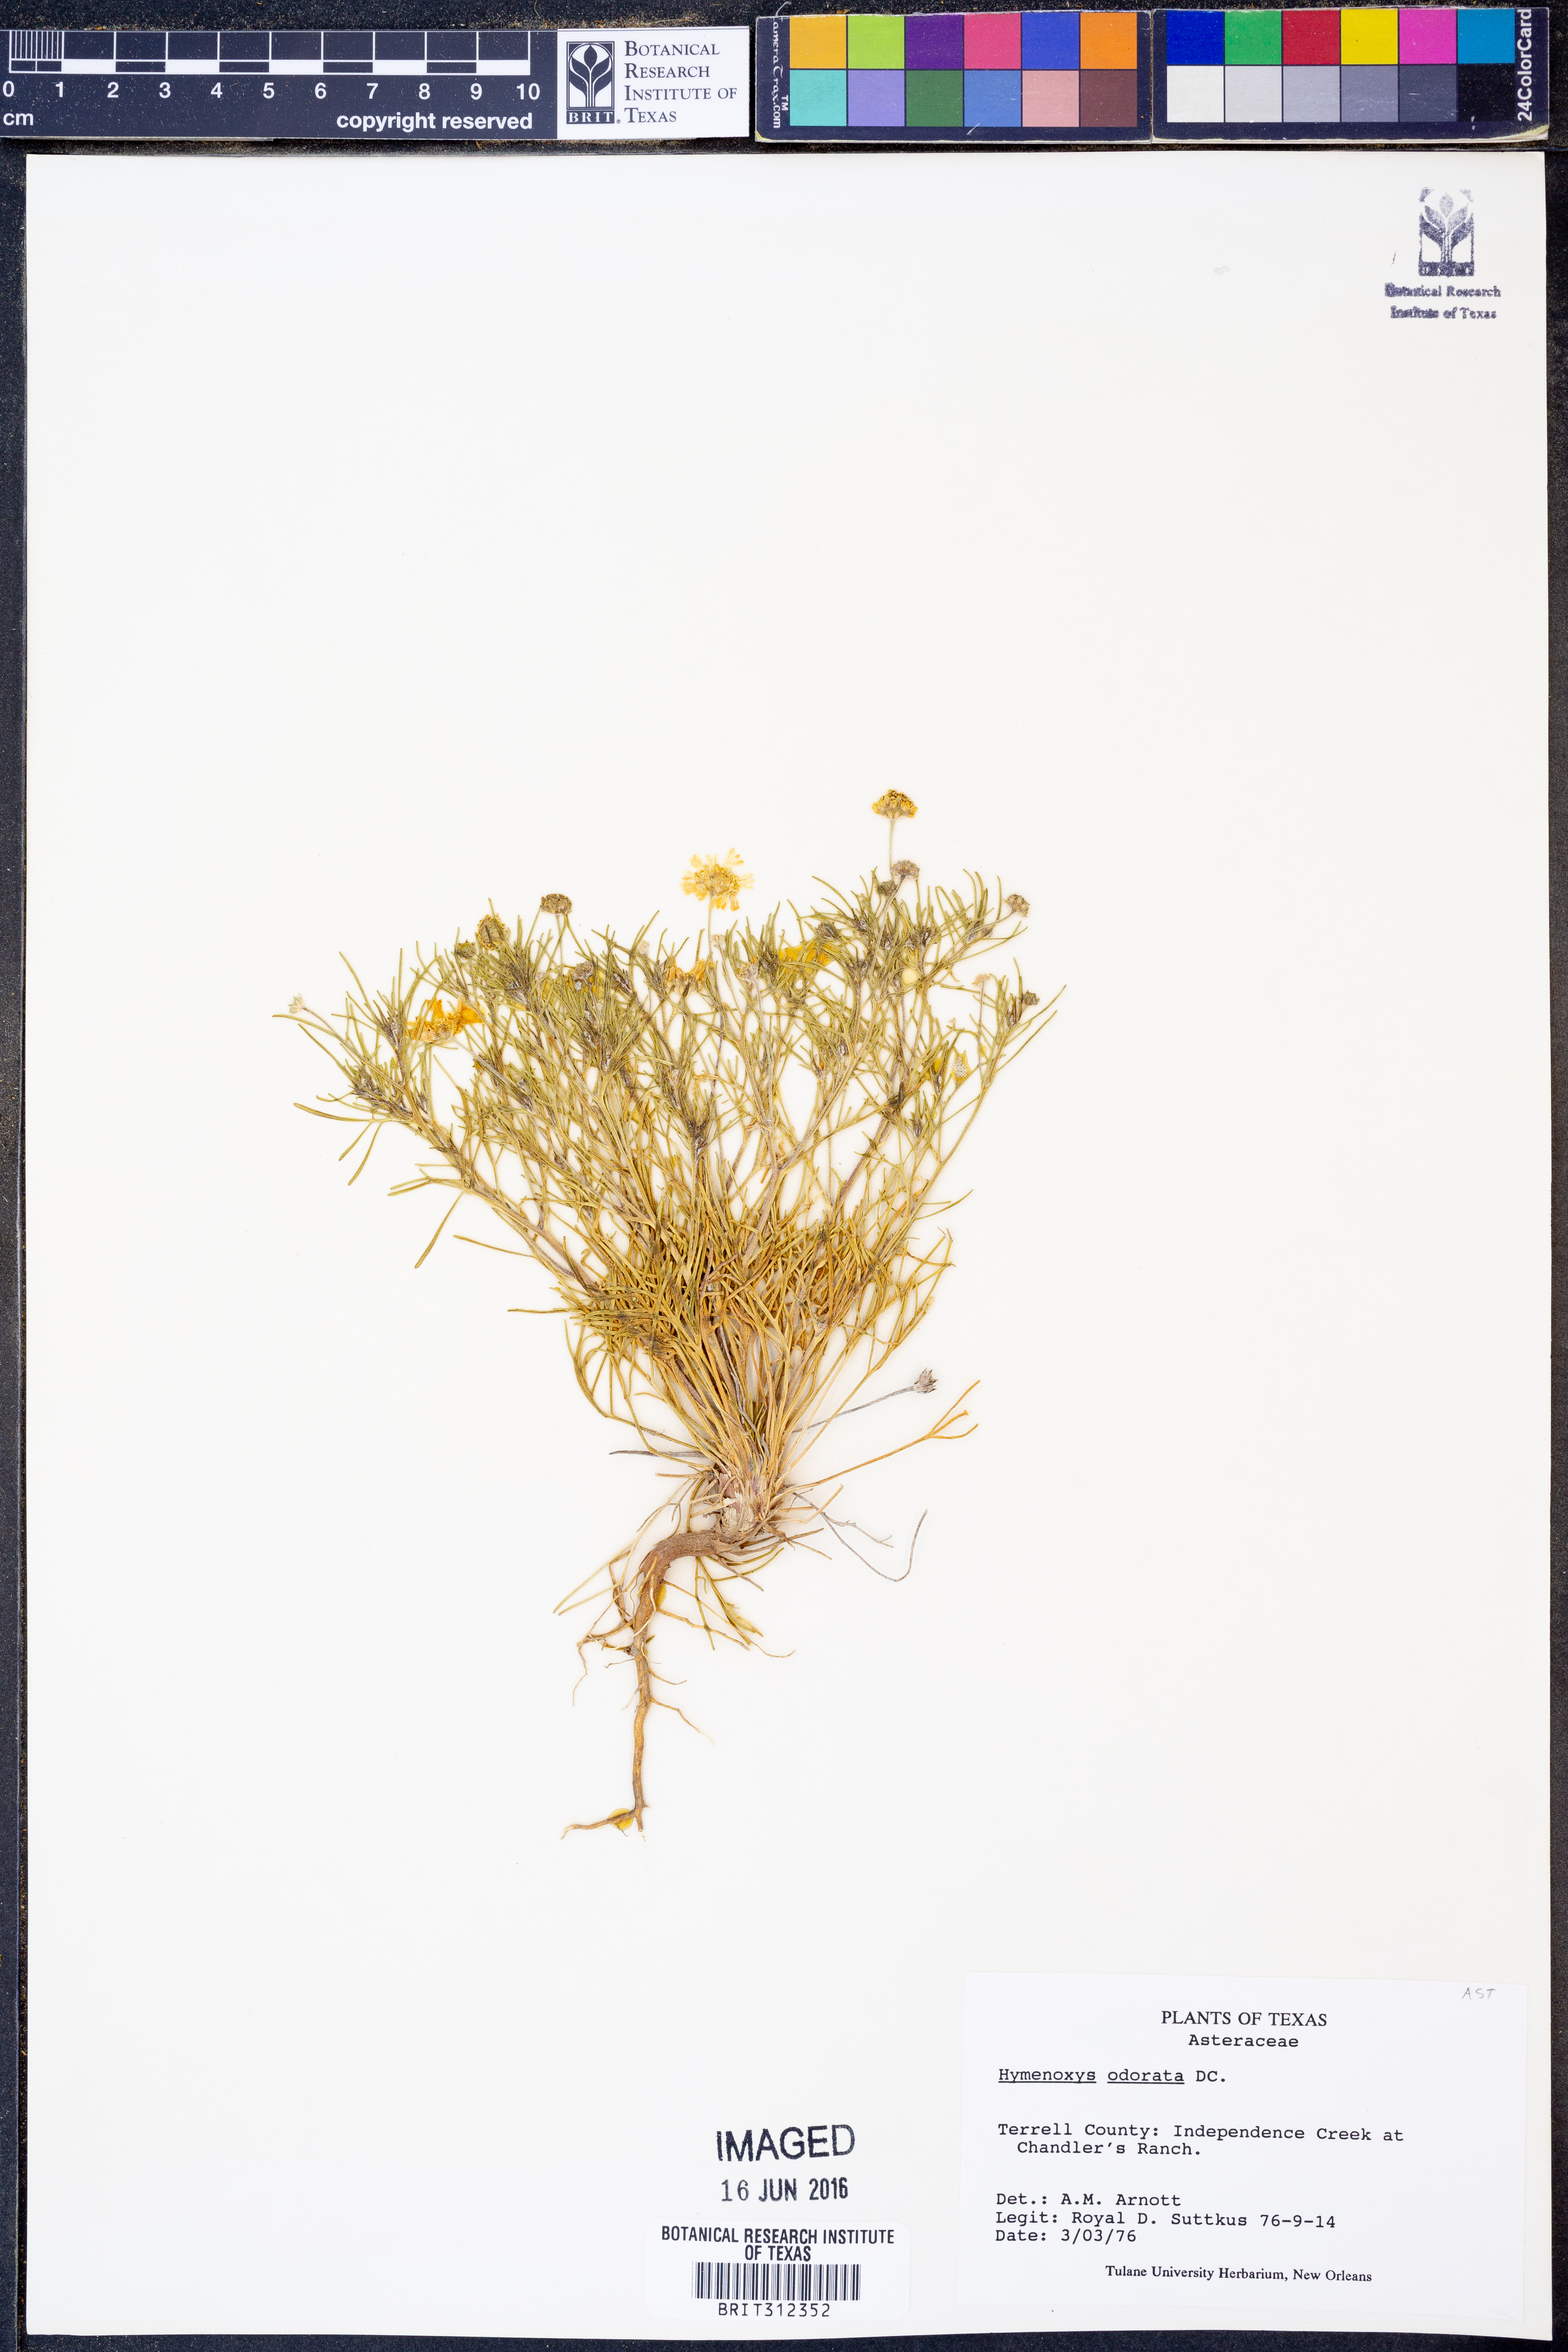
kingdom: Plantae
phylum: Tracheophyta
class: Magnoliopsida
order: Asterales
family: Asteraceae
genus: Hymenoxys
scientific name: Hymenoxys odorata
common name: Bitter rubberweed
